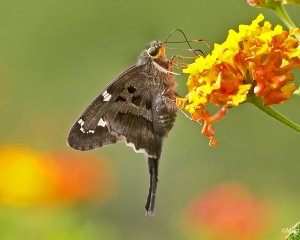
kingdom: Animalia
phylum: Arthropoda
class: Insecta
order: Lepidoptera
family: Hesperiidae
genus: Urbanus
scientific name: Urbanus proteus
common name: Long-tailed Skipper
